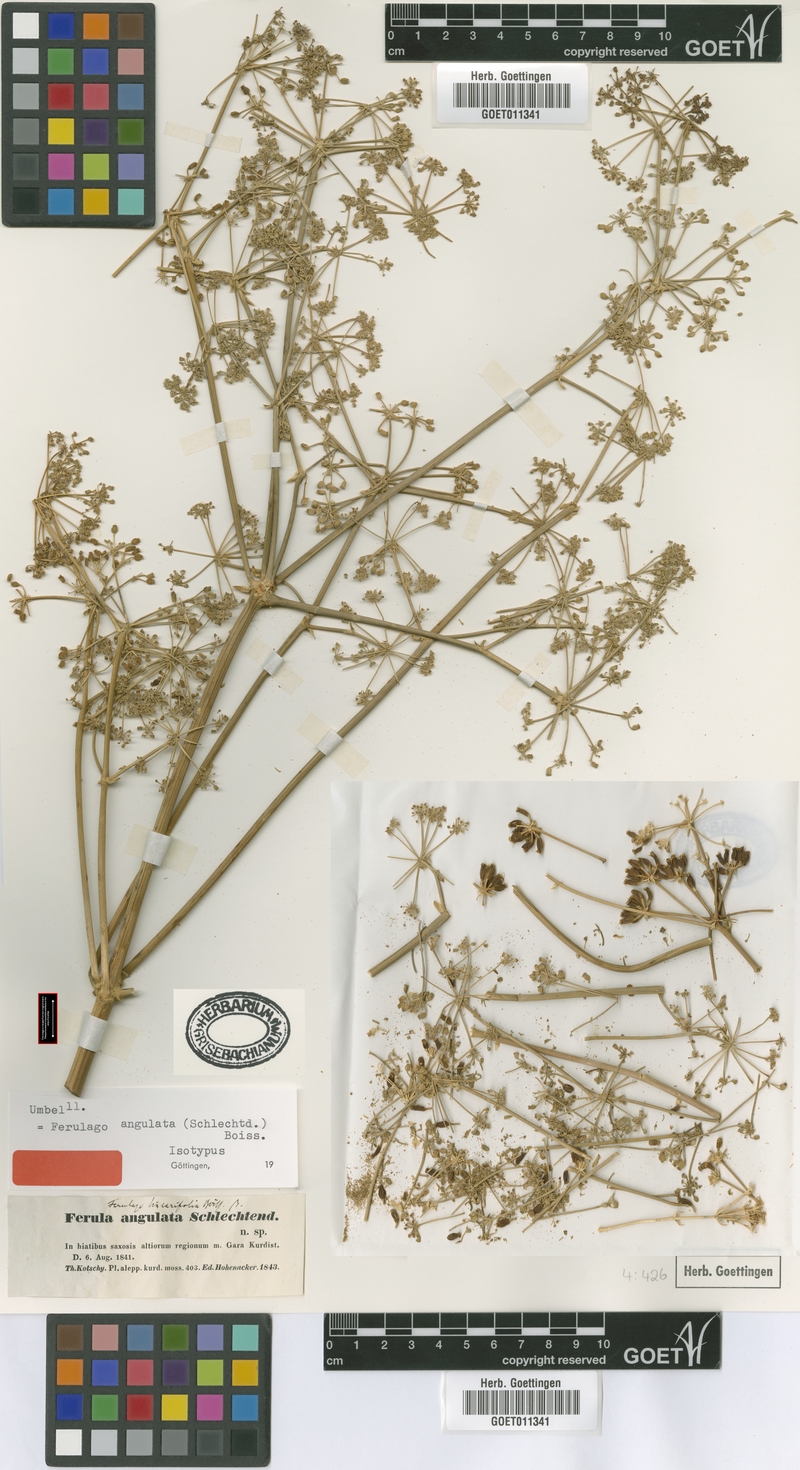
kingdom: Plantae
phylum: Tracheophyta
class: Magnoliopsida
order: Apiales
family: Apiaceae
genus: Ferulago
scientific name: Ferulago angulata
